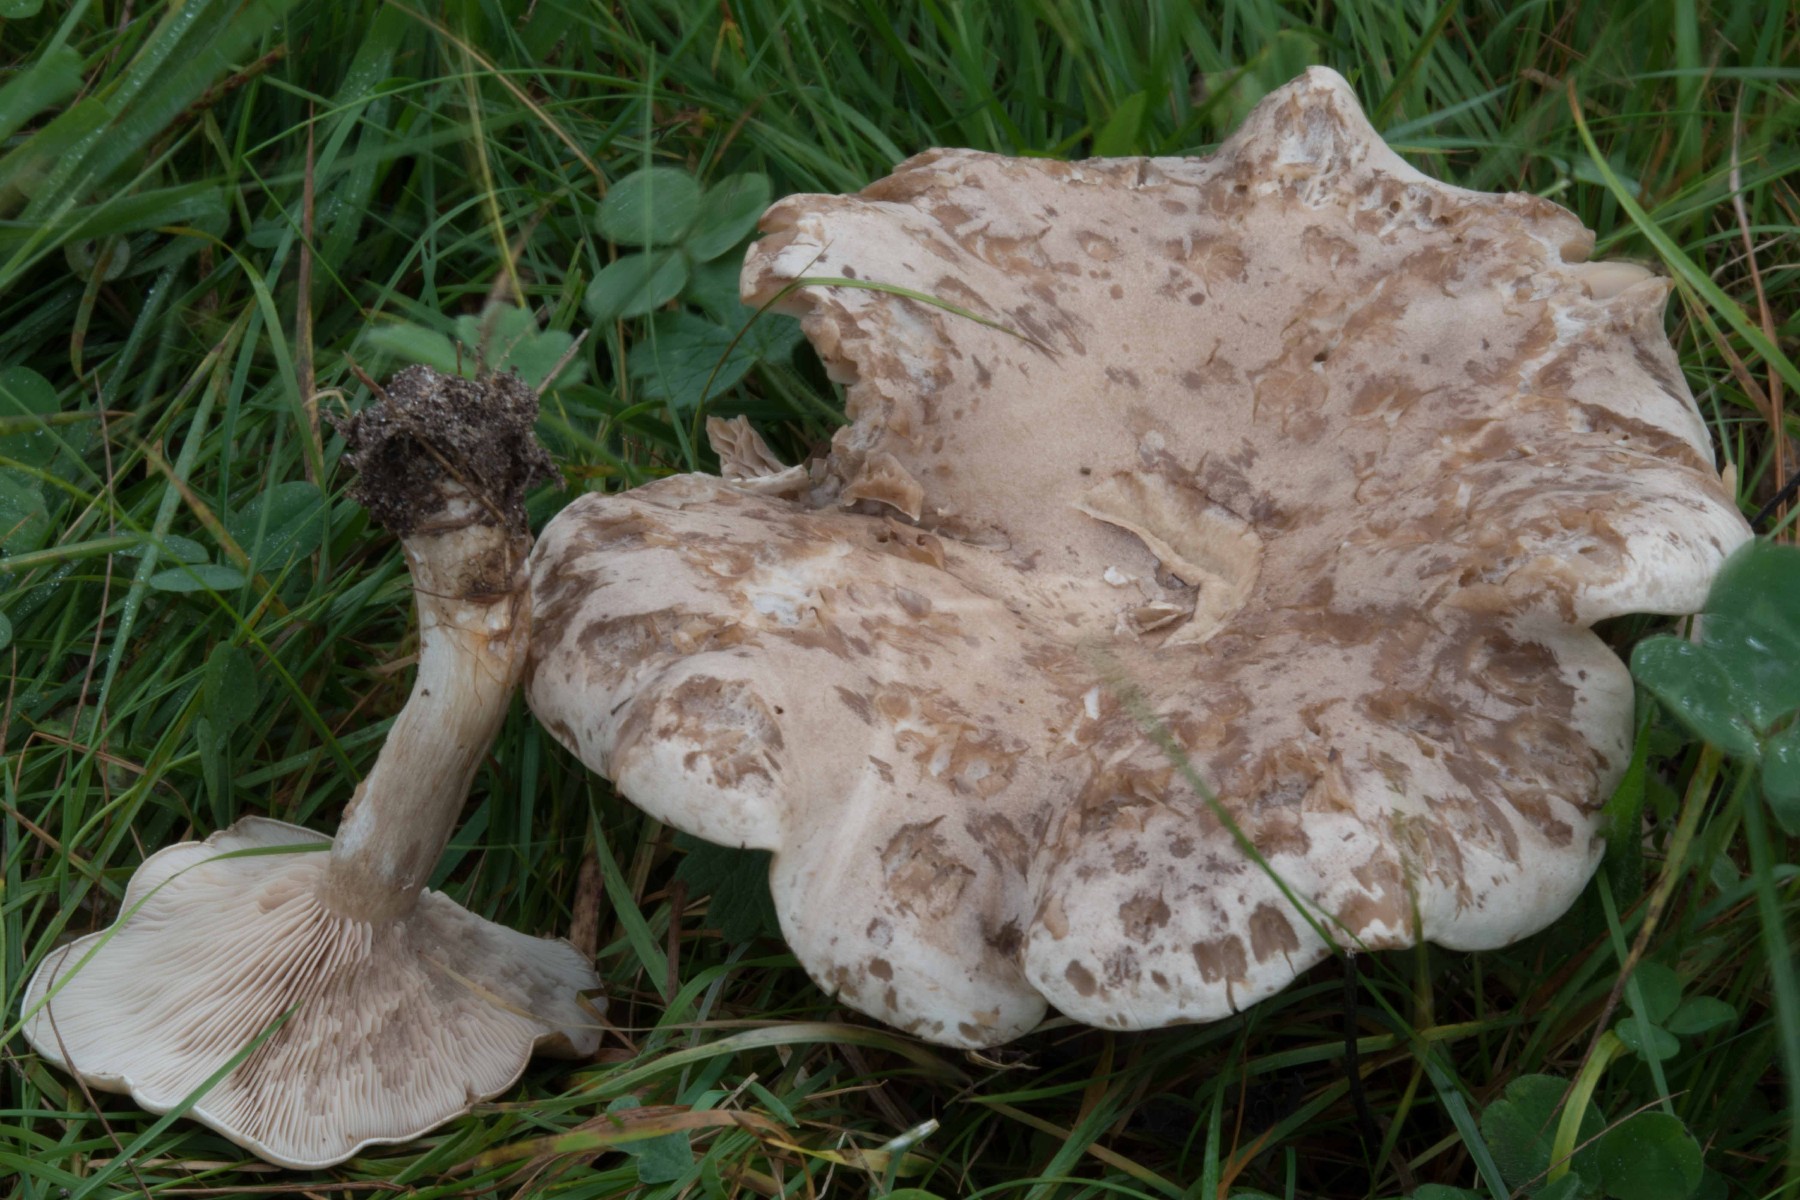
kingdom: Fungi
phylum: Basidiomycota
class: Agaricomycetes
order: Agaricales
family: Tricholomataceae
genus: Lepista
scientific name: Lepista panaeolus
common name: marmoreret hekseringshat
